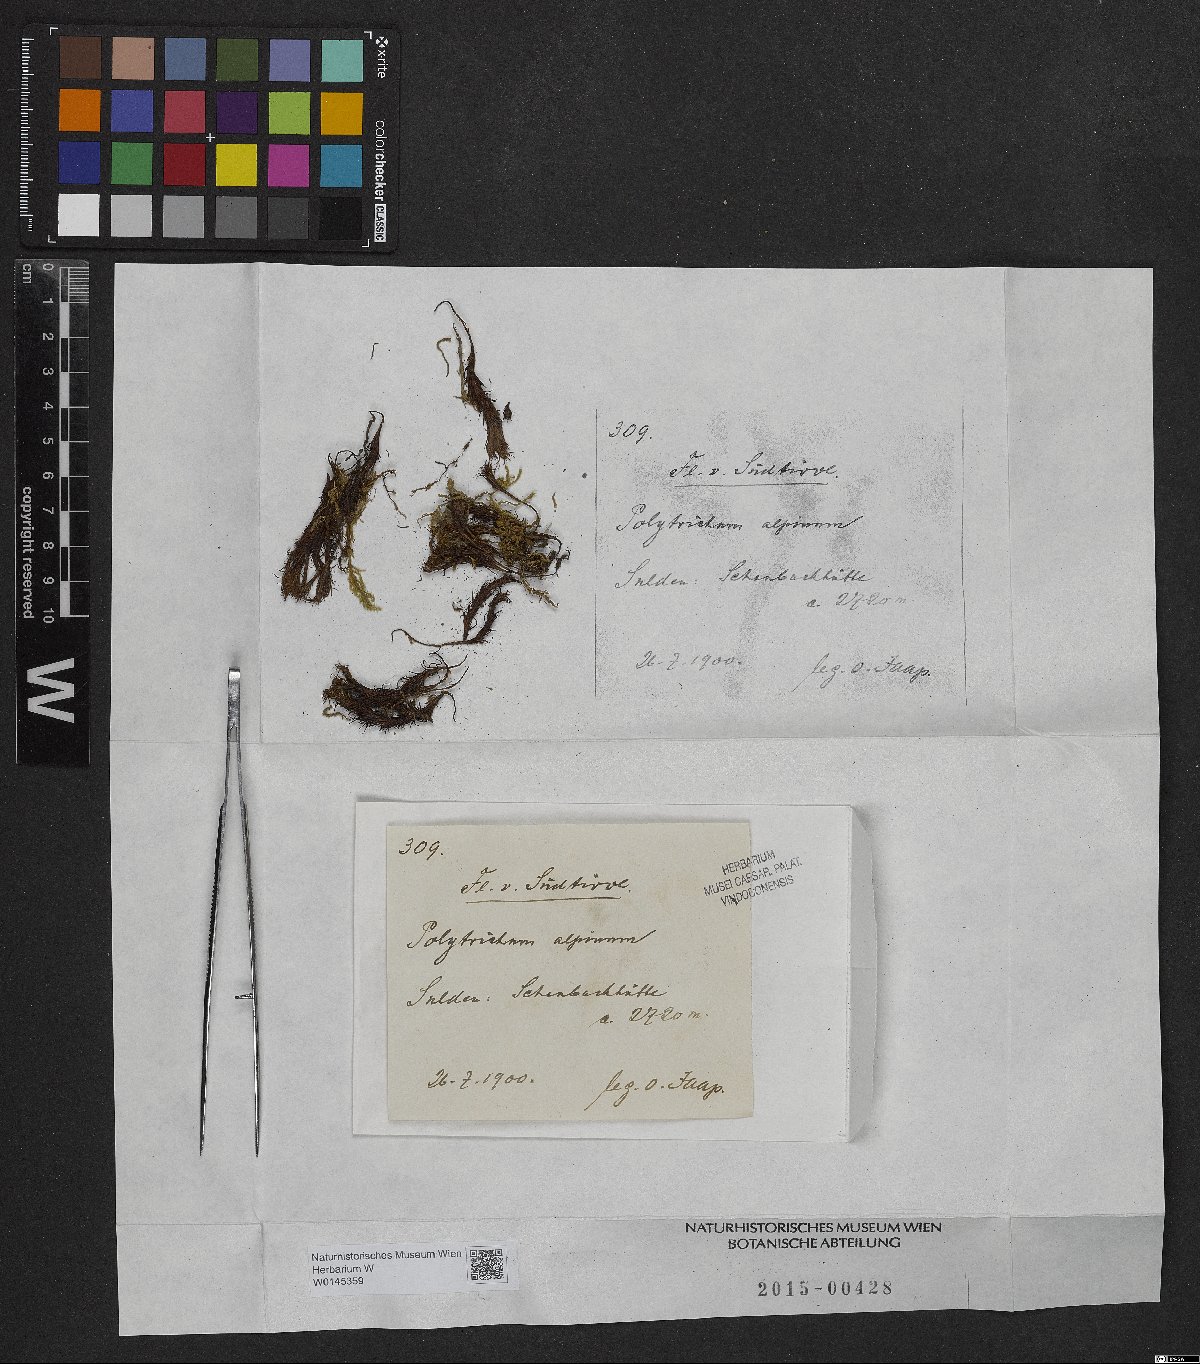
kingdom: Plantae
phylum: Bryophyta
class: Polytrichopsida
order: Polytrichales
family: Polytrichaceae
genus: Polytrichastrum
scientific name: Polytrichastrum alpinum
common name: Alpine haircap
